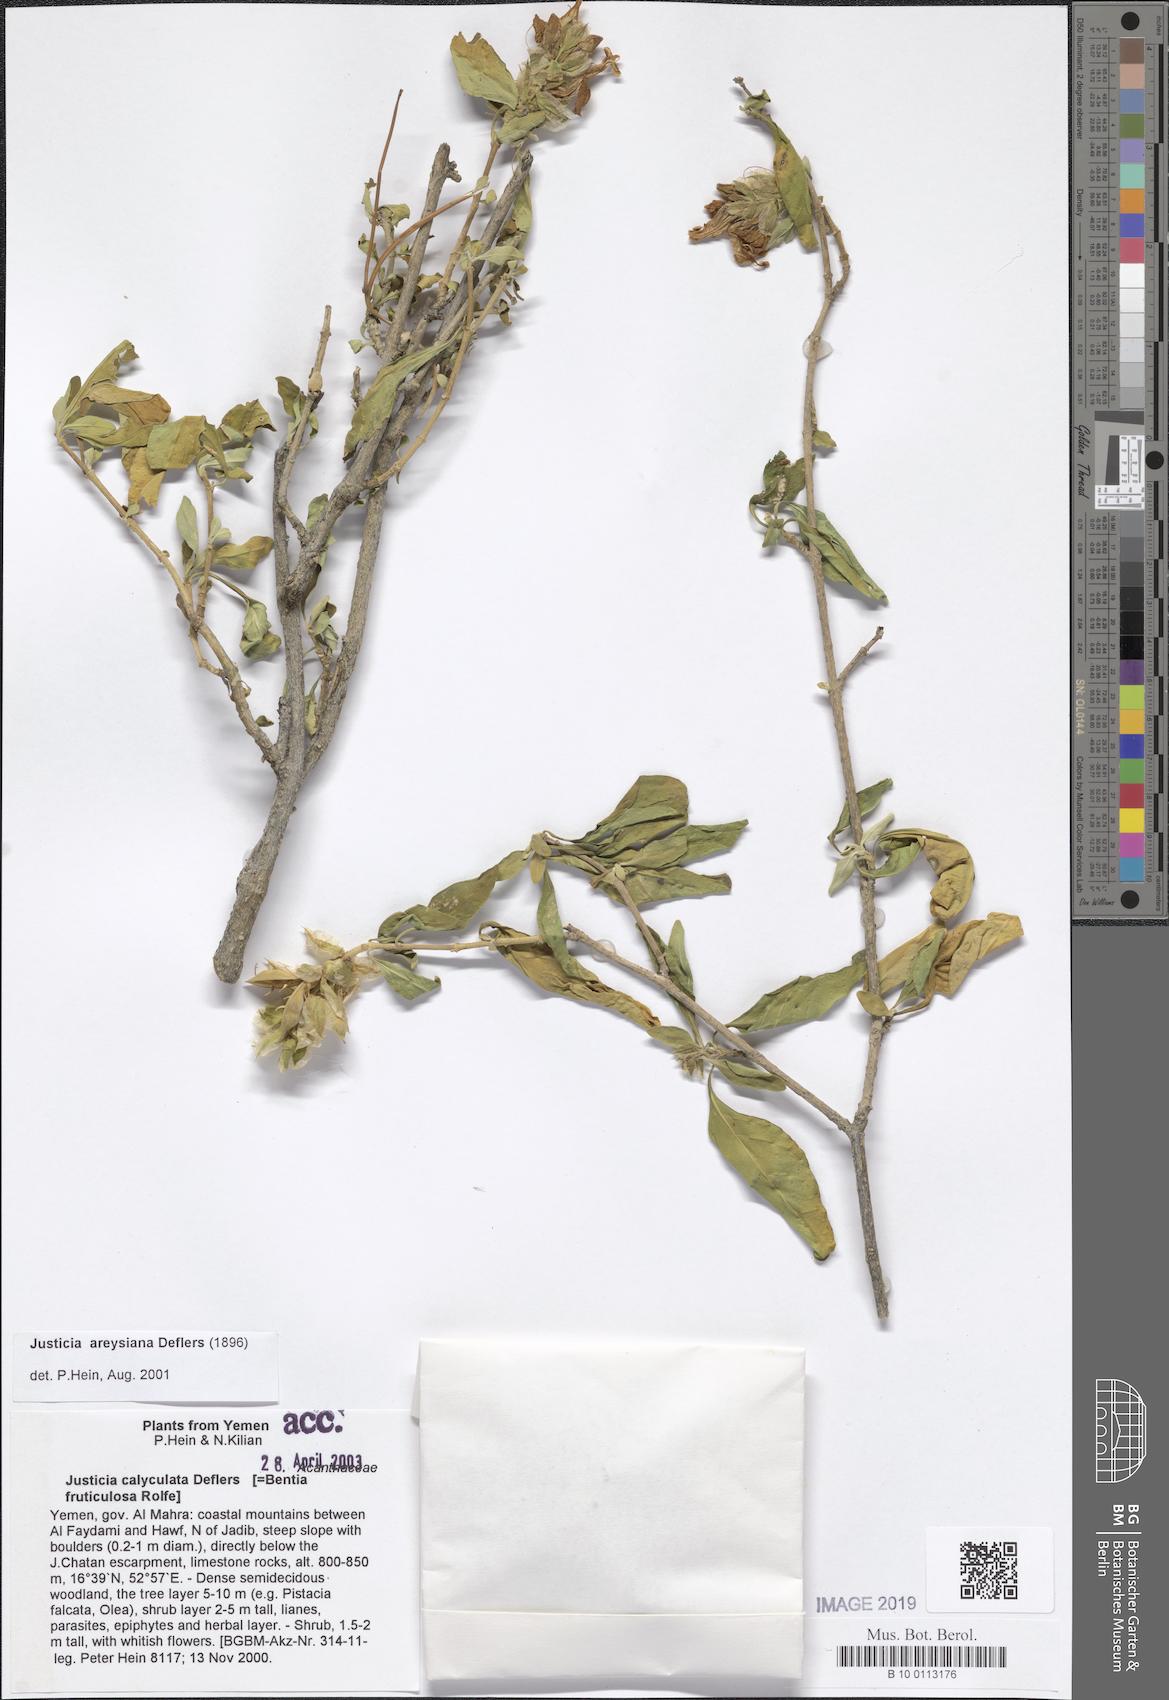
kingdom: Plantae
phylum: Tracheophyta
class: Magnoliopsida
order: Lamiales
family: Acanthaceae
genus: Justicia
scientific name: Justicia areysiana
